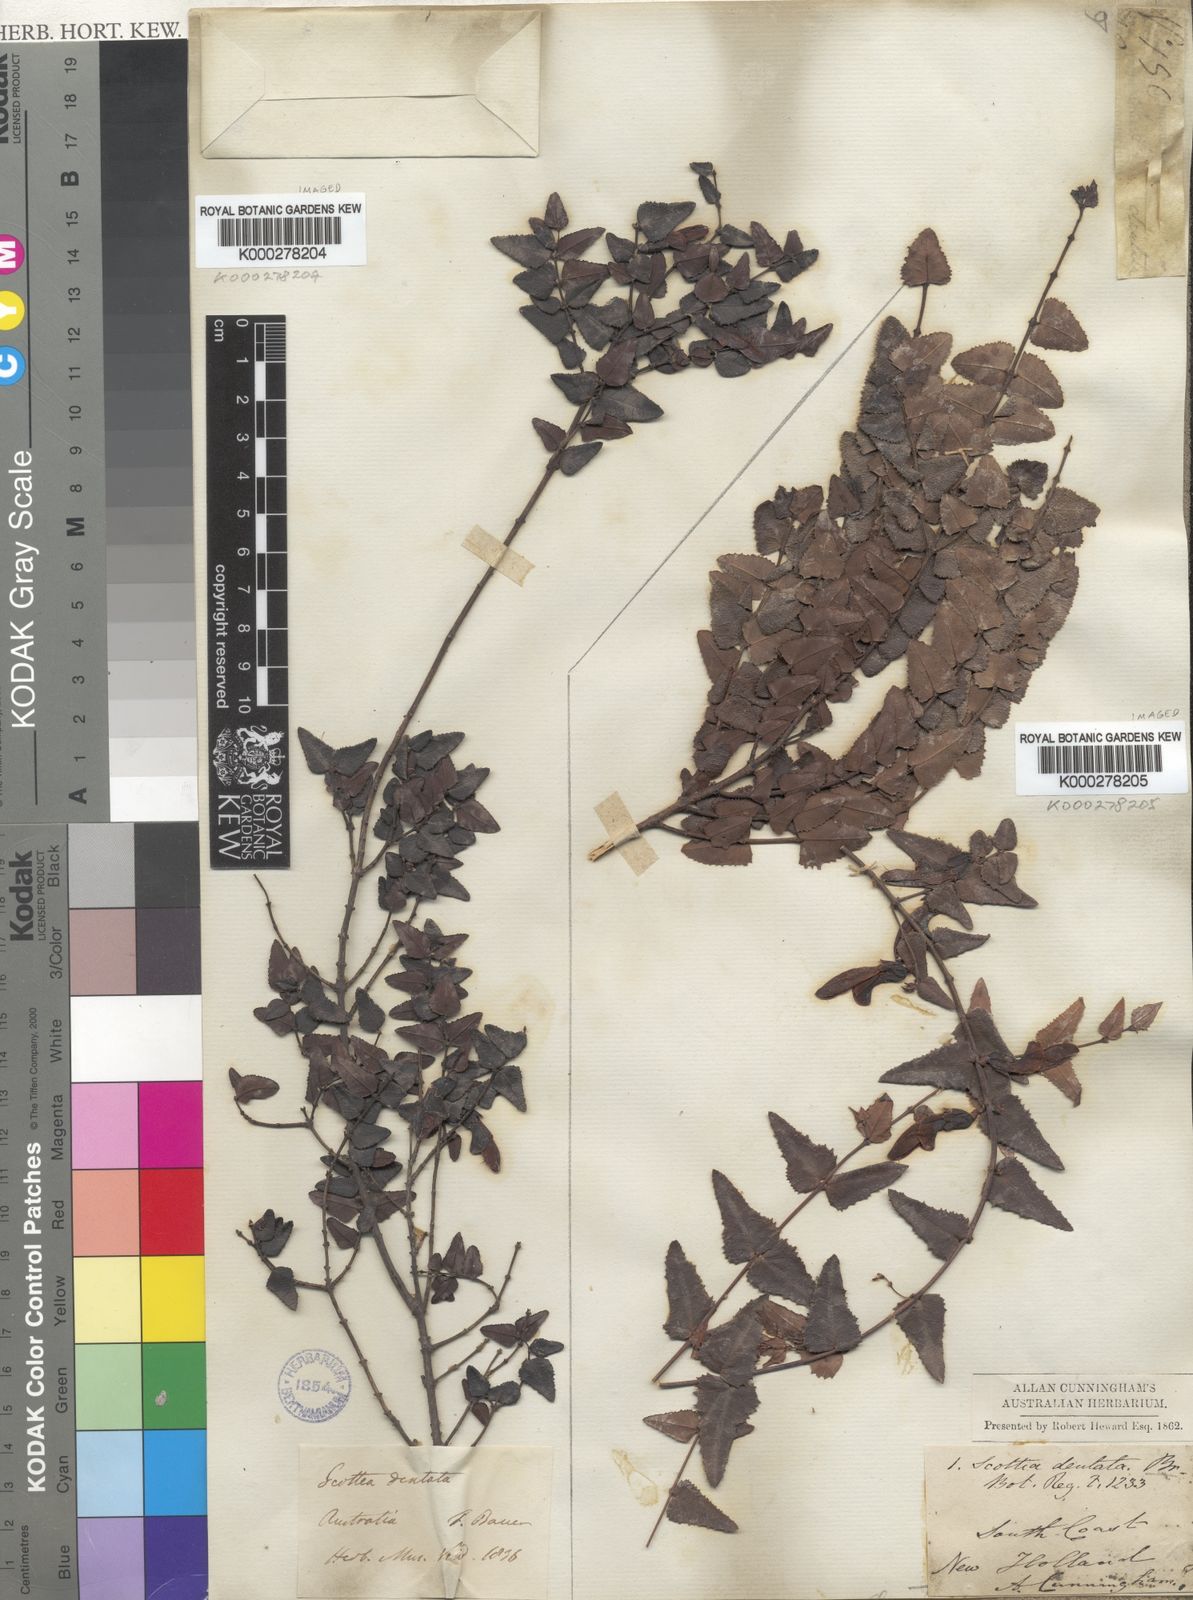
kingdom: Plantae
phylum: Tracheophyta
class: Magnoliopsida
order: Fabales
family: Fabaceae
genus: Bossiaea
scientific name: Bossiaea dentata
